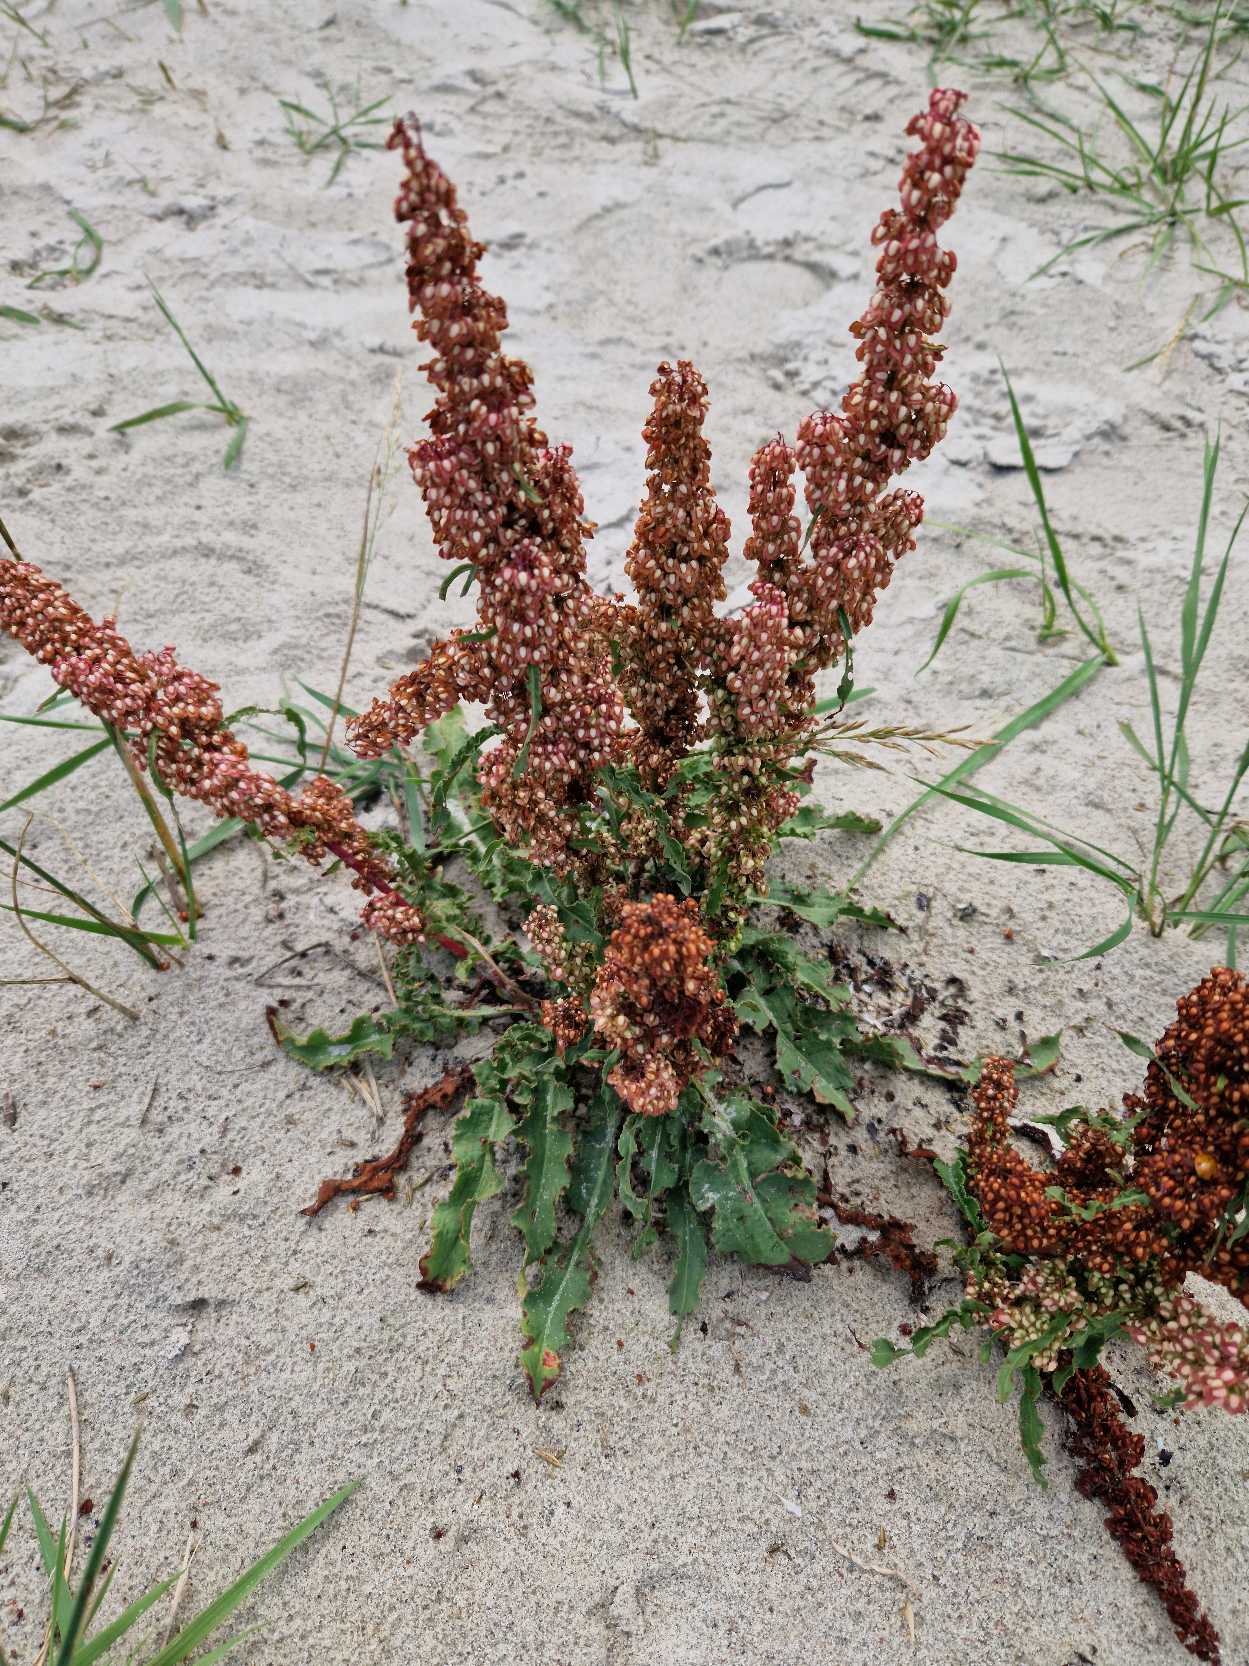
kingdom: Plantae
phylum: Tracheophyta
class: Magnoliopsida
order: Caryophyllales
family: Polygonaceae
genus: Rumex
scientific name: Rumex crispus
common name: Kruset skræppe
